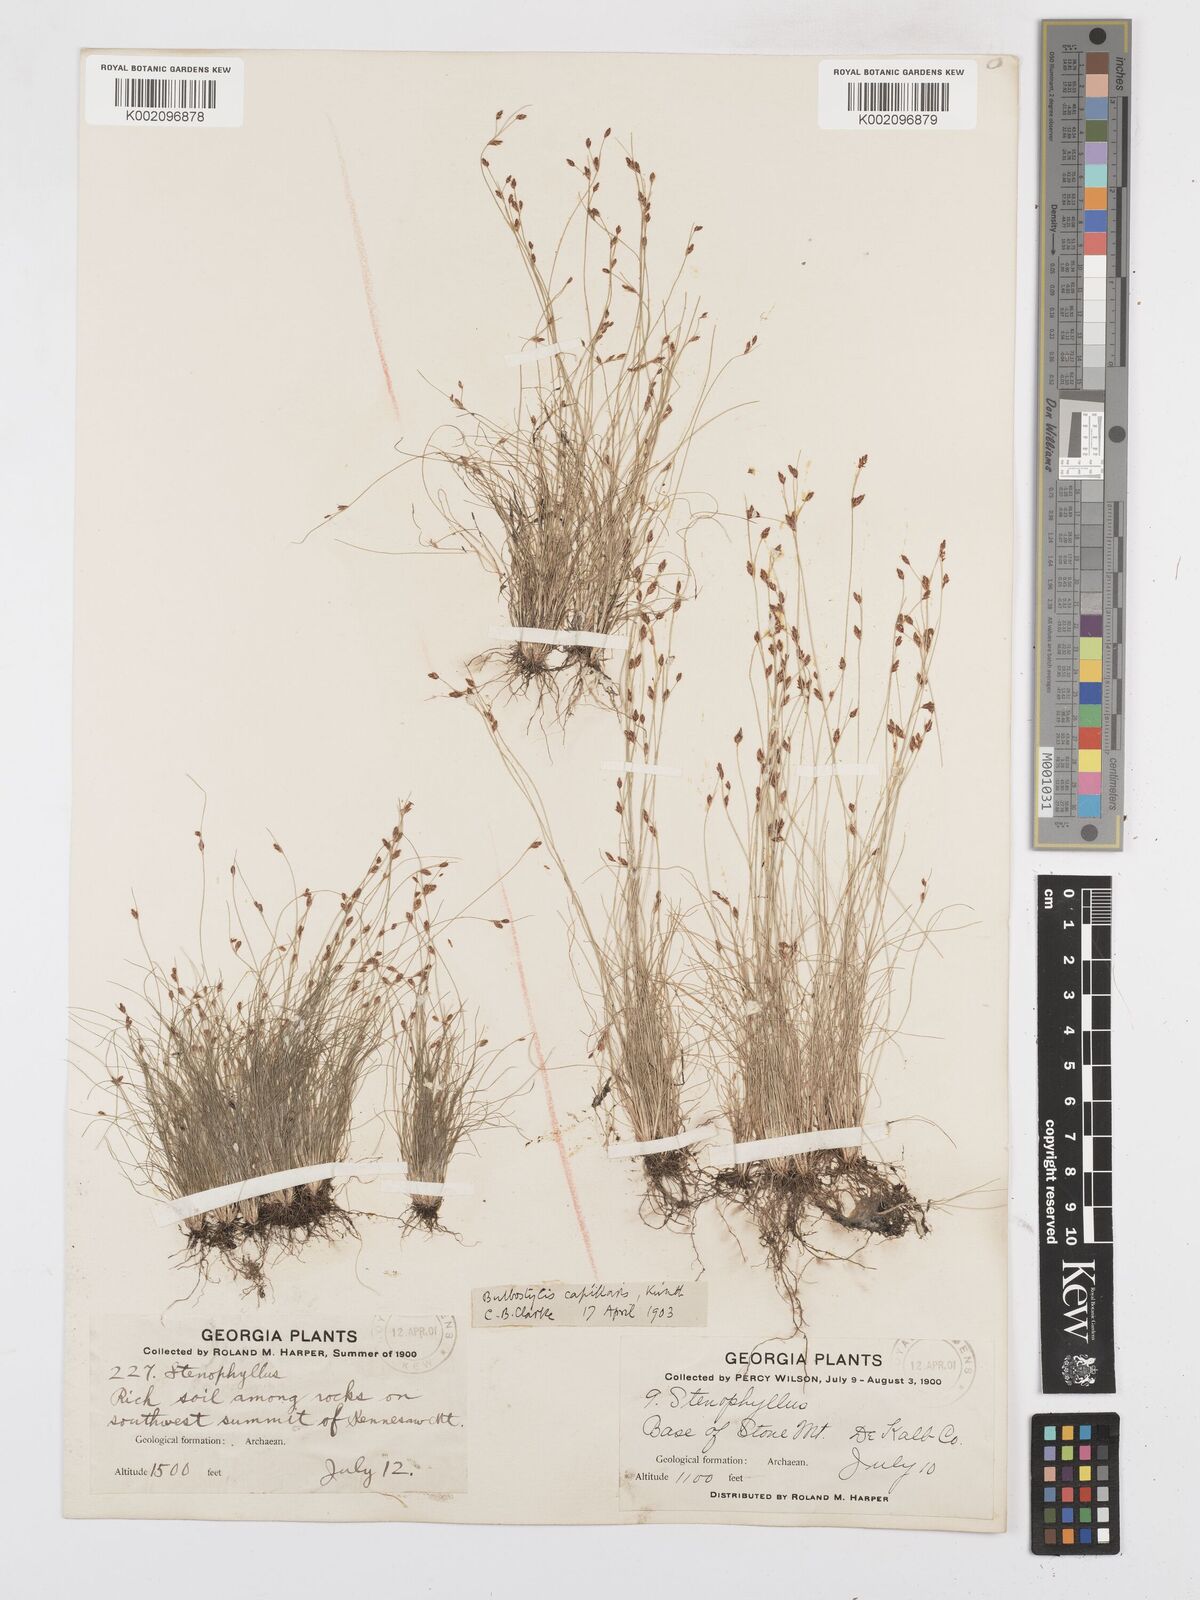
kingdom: Plantae
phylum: Tracheophyta
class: Liliopsida
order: Poales
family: Cyperaceae
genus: Bulbostylis
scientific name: Bulbostylis capillaris
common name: Densetuft hairsedge
